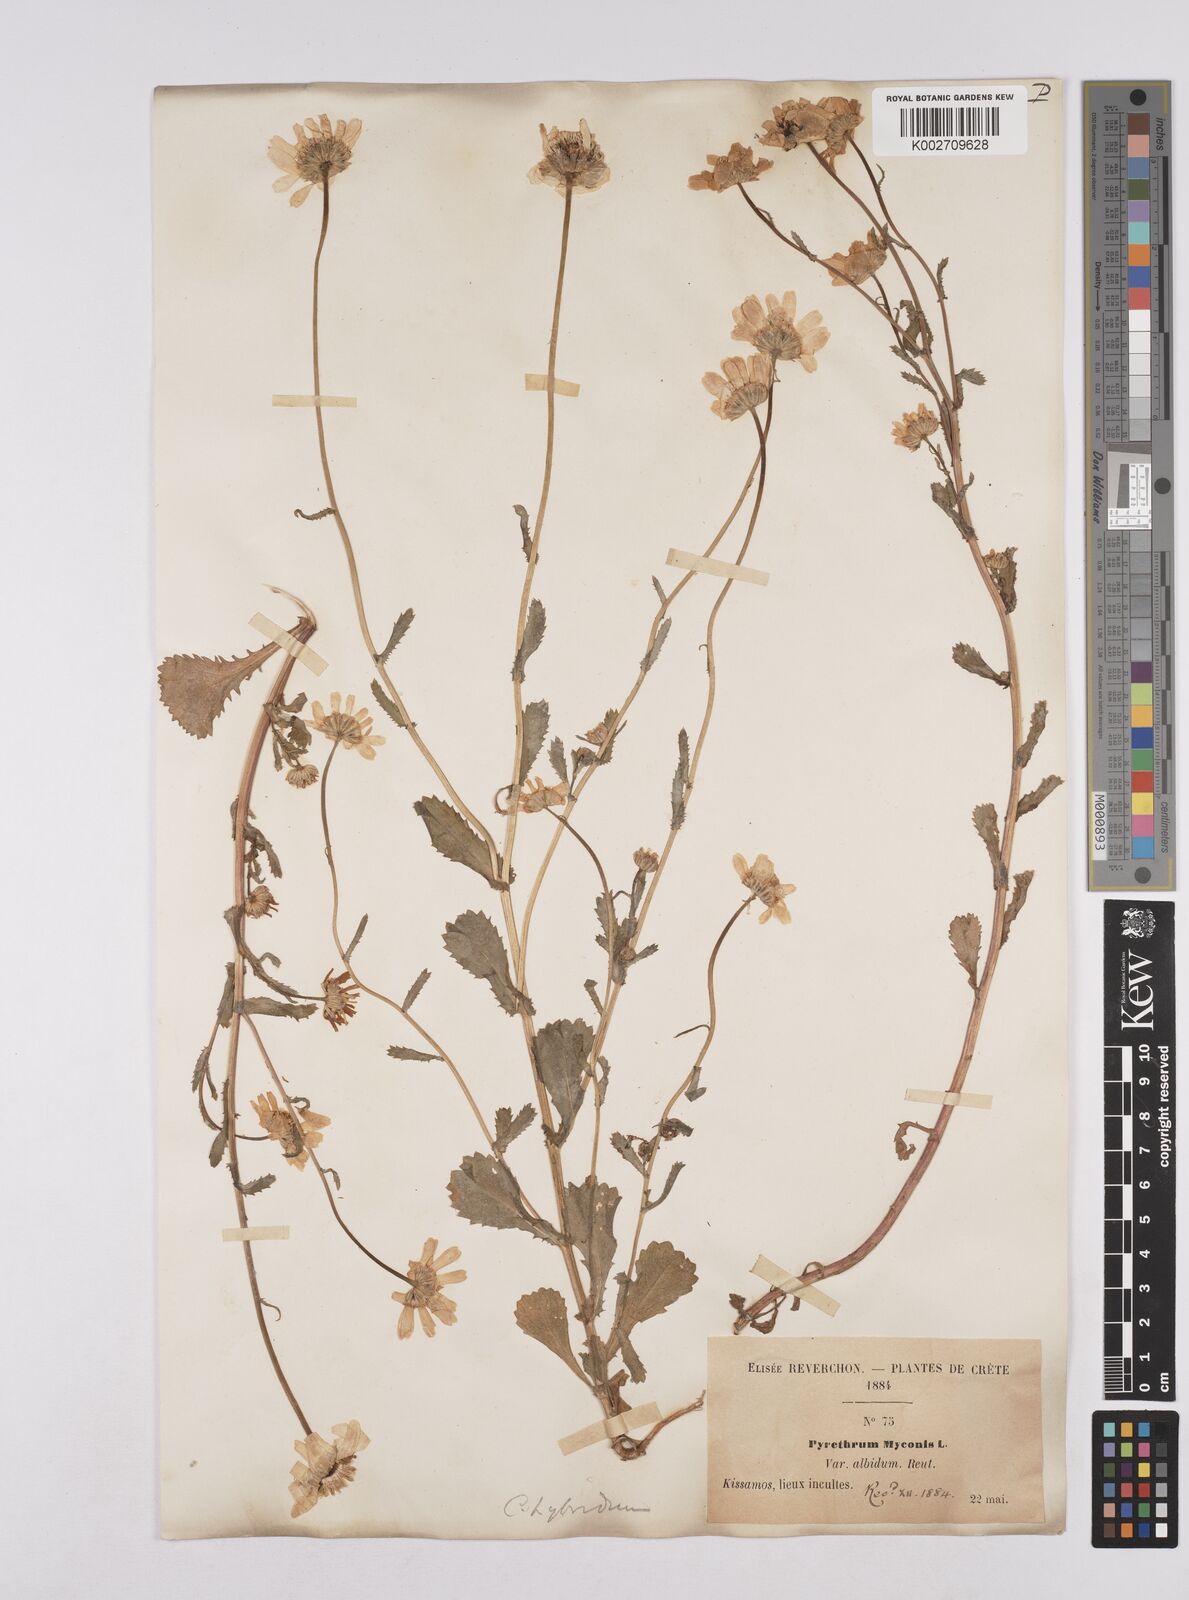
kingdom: Plantae
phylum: Tracheophyta
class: Magnoliopsida
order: Asterales
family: Asteraceae
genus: Coleostephus
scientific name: Coleostephus paludosus
